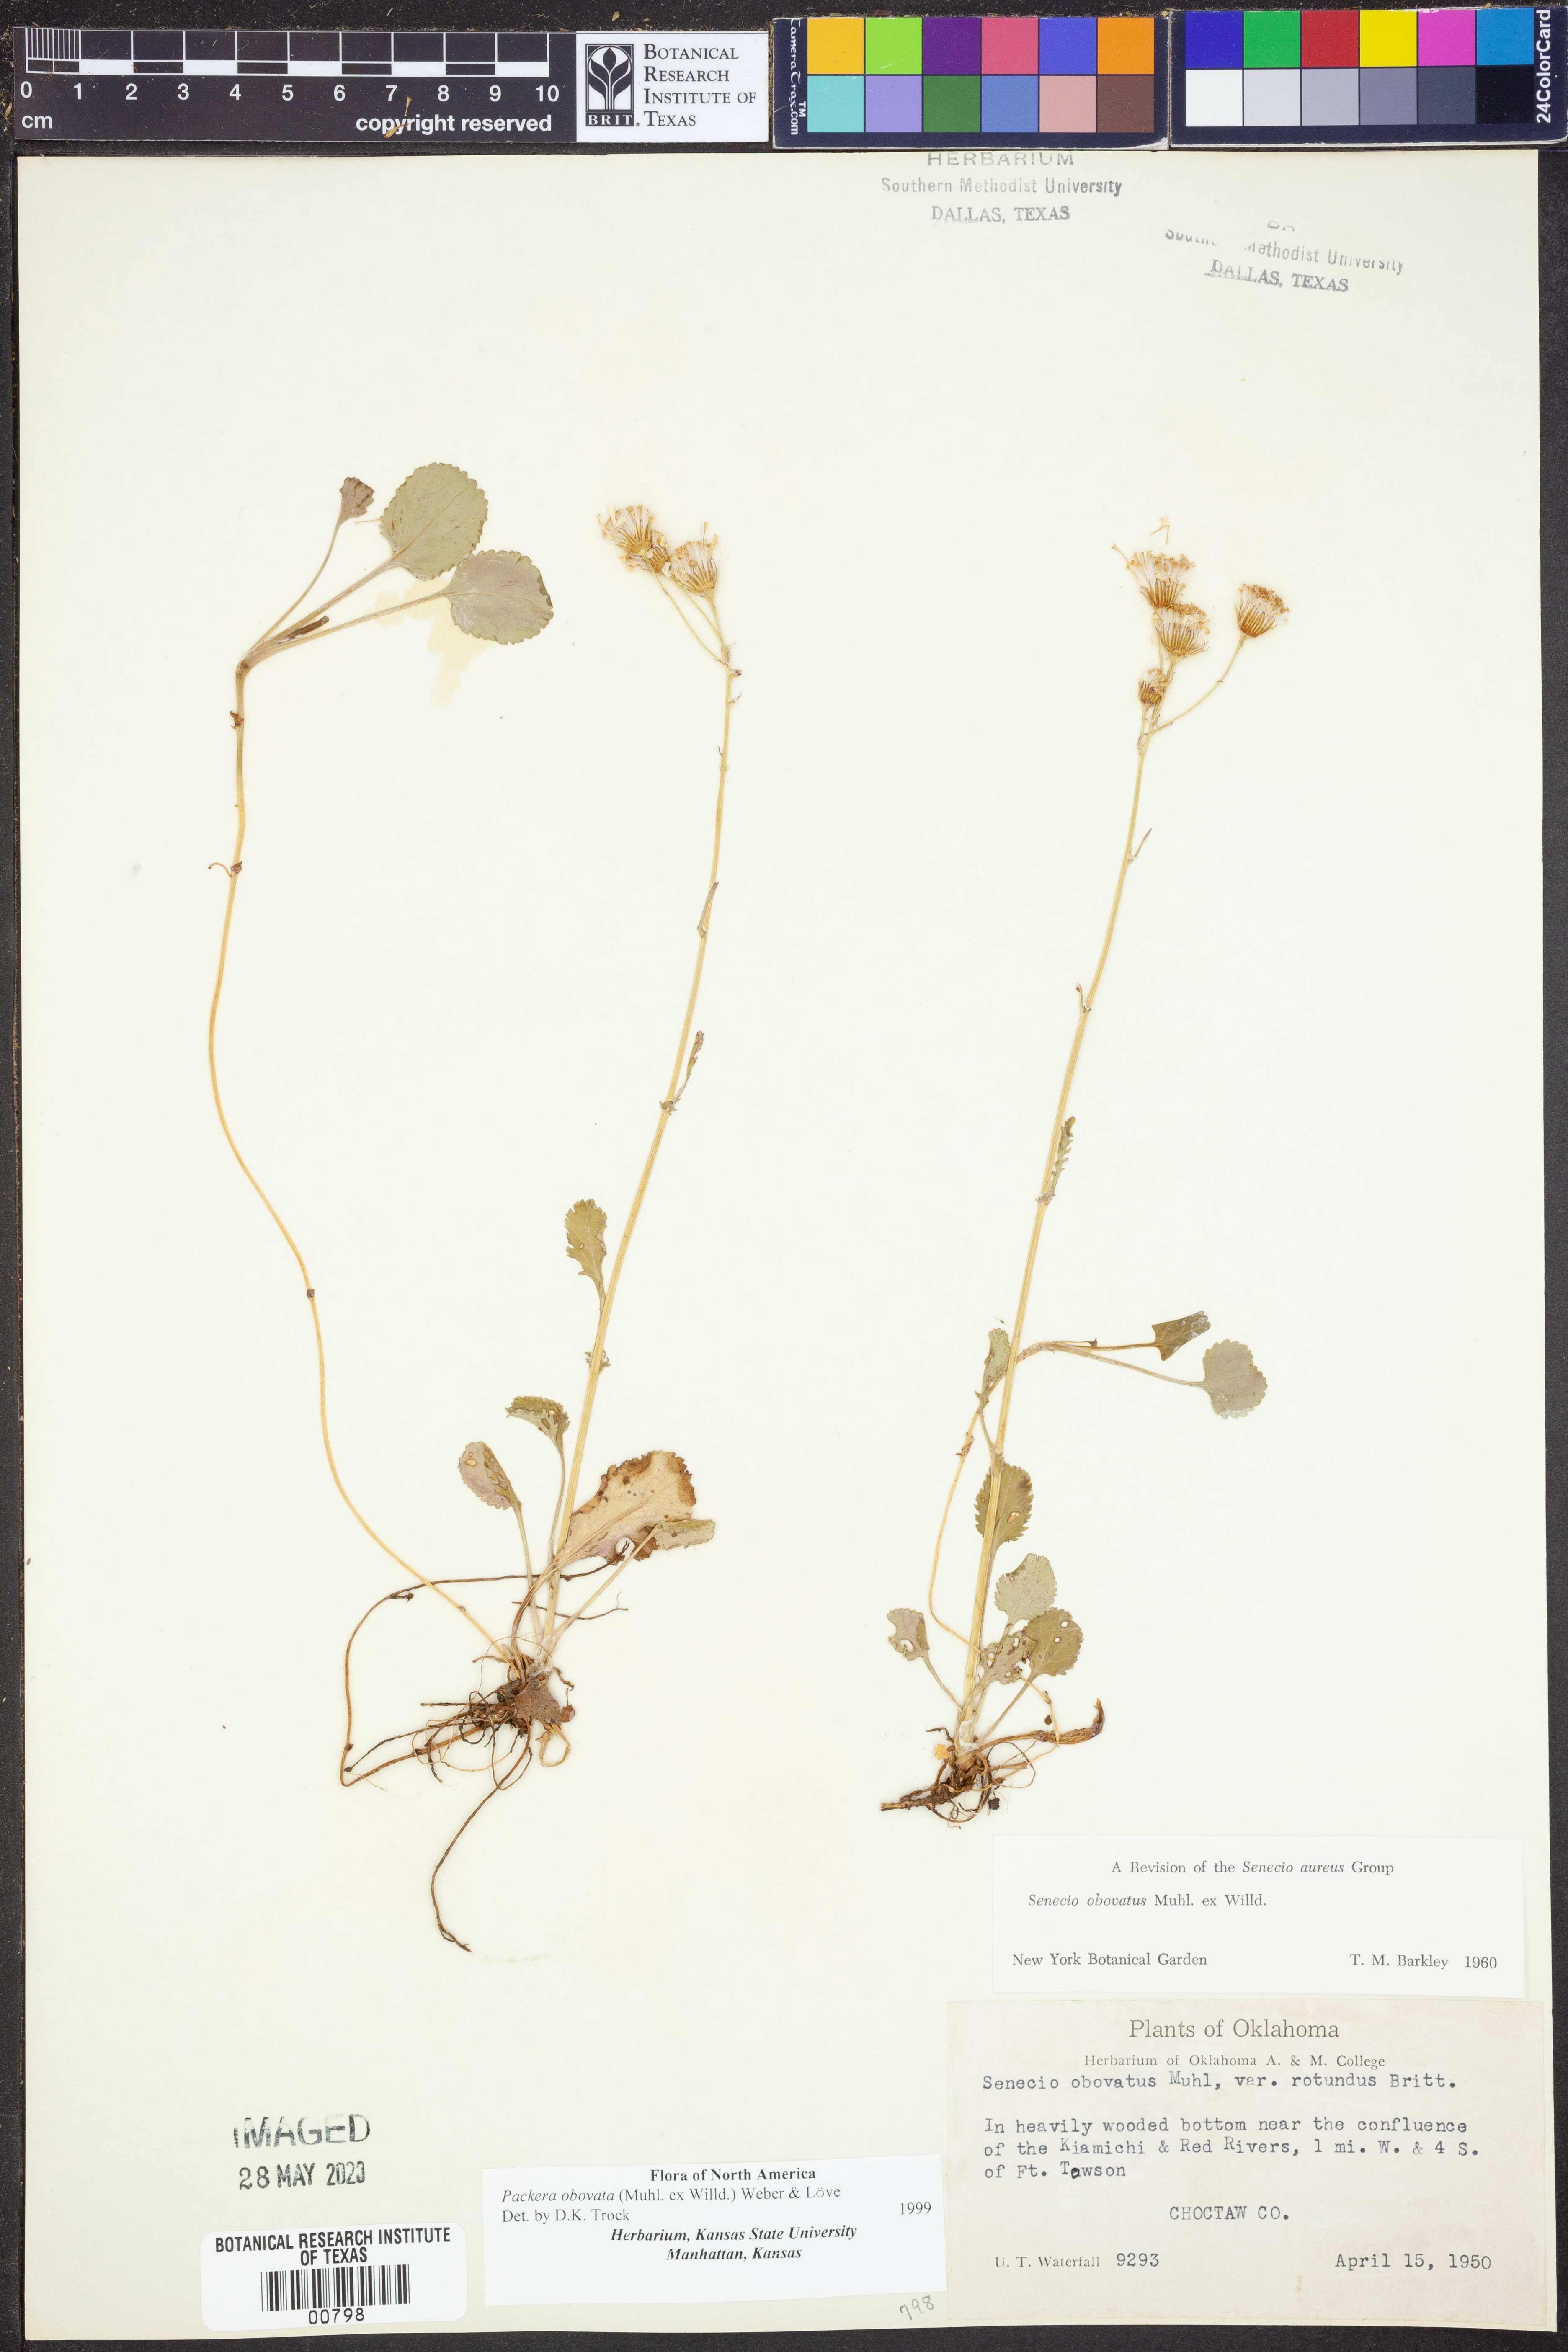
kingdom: Plantae
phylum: Tracheophyta
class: Magnoliopsida
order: Asterales
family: Asteraceae
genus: Packera
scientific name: Packera obovata
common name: Round-leaf ragwort
